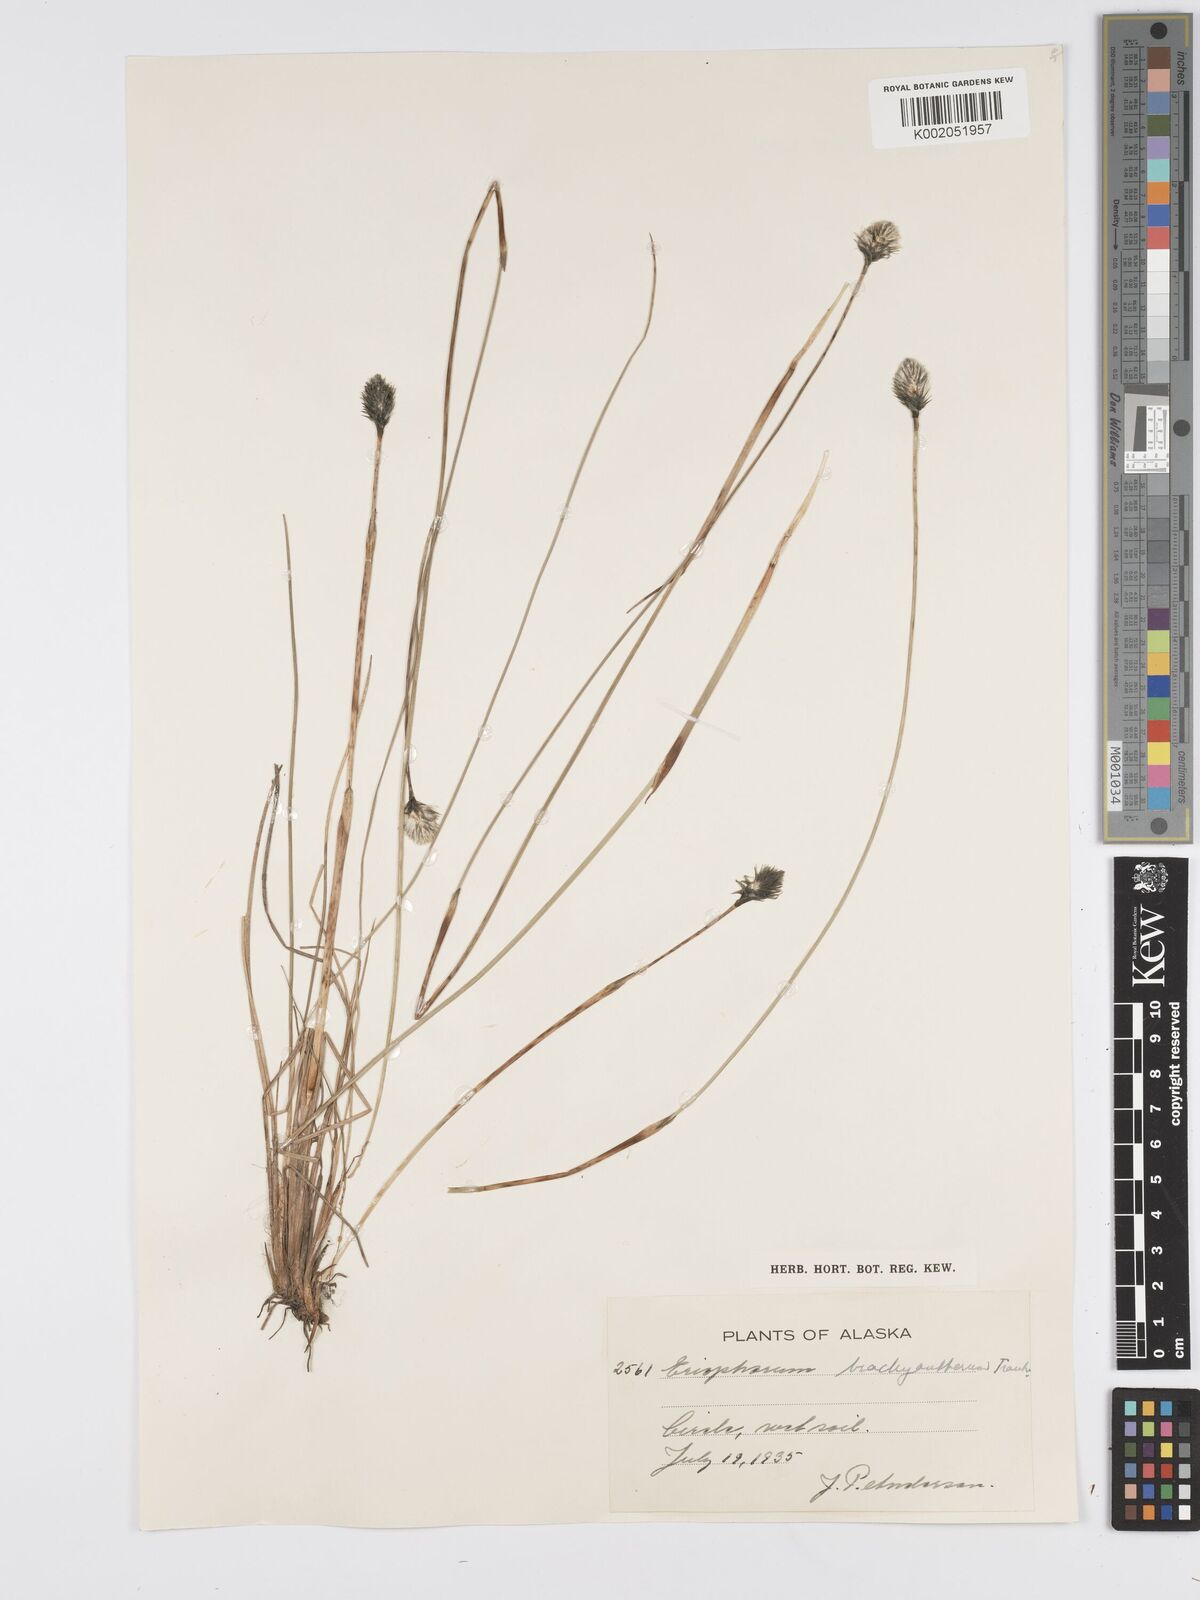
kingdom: Plantae
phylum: Tracheophyta
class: Liliopsida
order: Poales
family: Cyperaceae
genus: Eriophorum
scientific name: Eriophorum brachyantherum
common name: Closed-sheathed cottongrass
